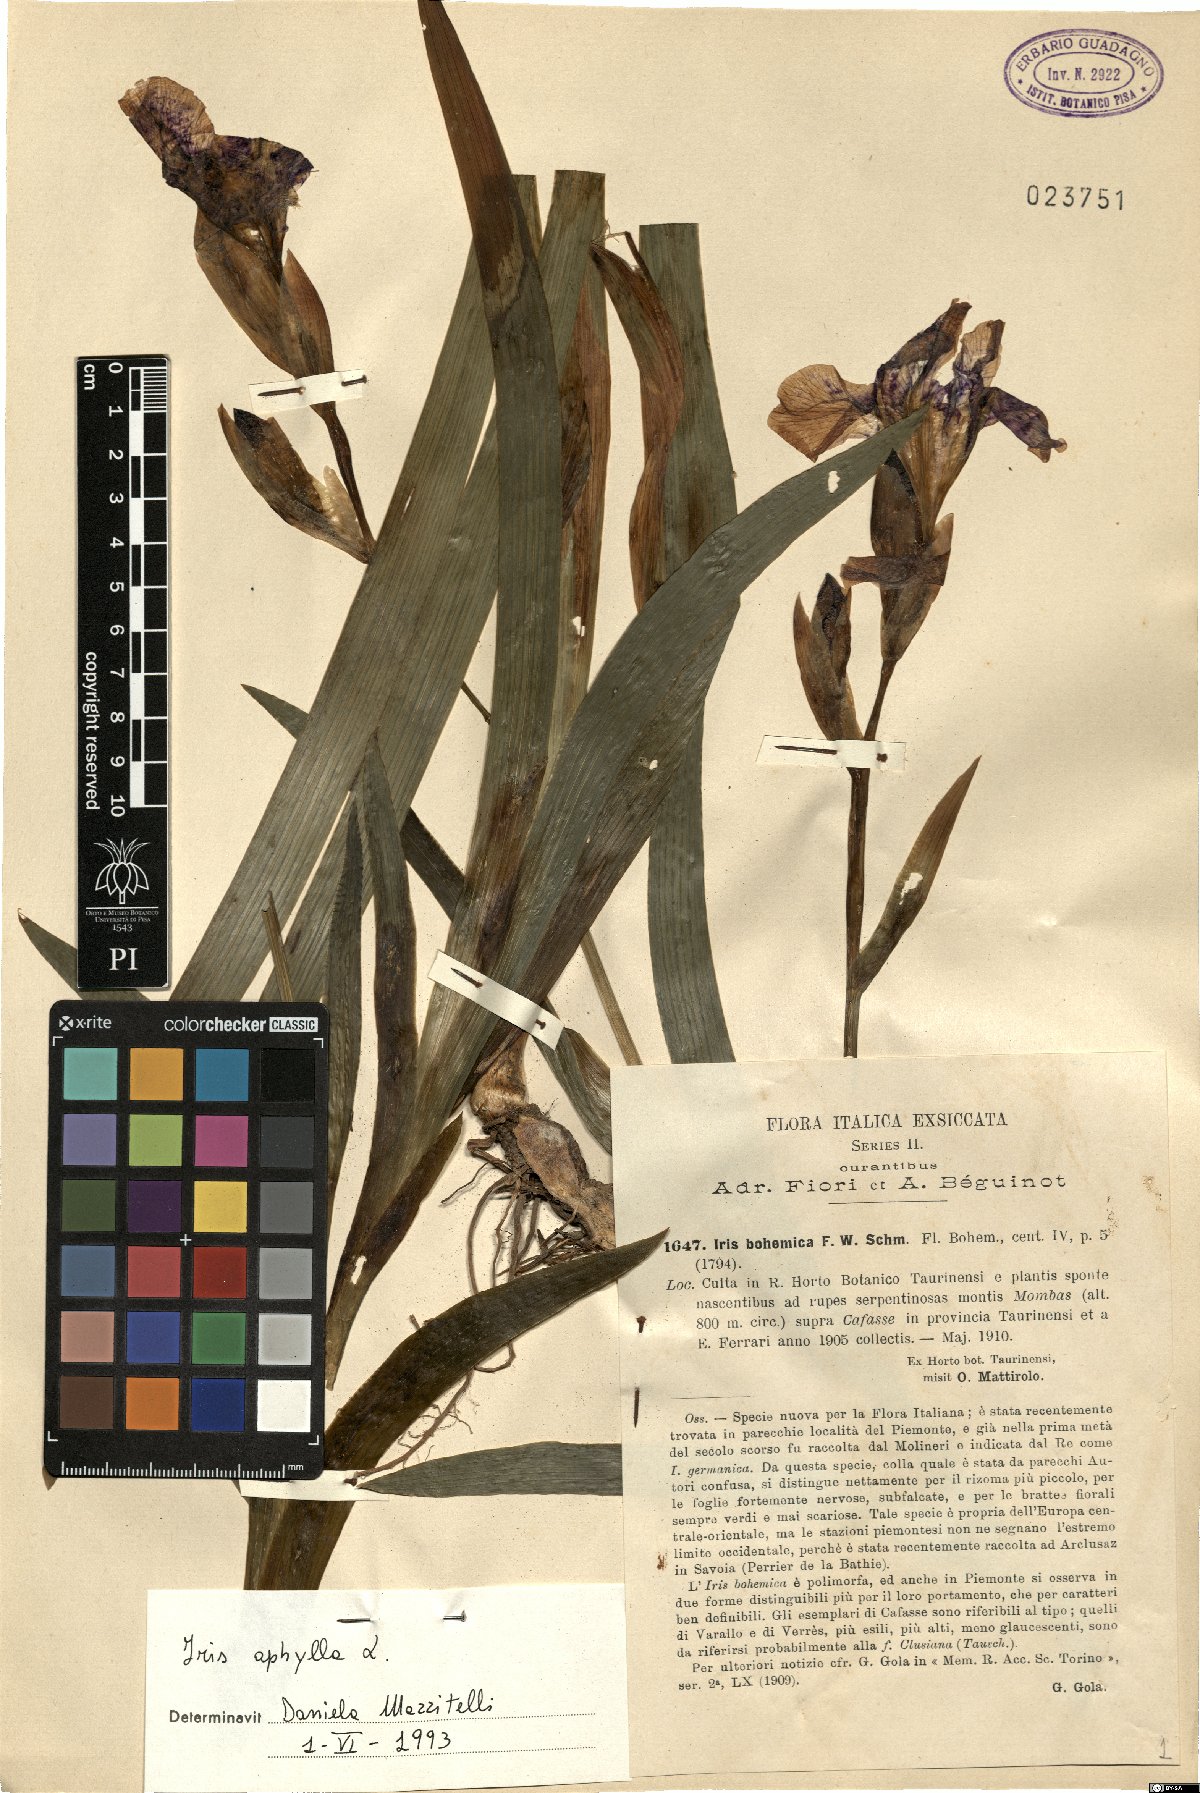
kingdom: Plantae
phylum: Tracheophyta
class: Liliopsida
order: Asparagales
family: Iridaceae
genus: Iris
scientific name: Iris aphylla
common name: Stool iris
